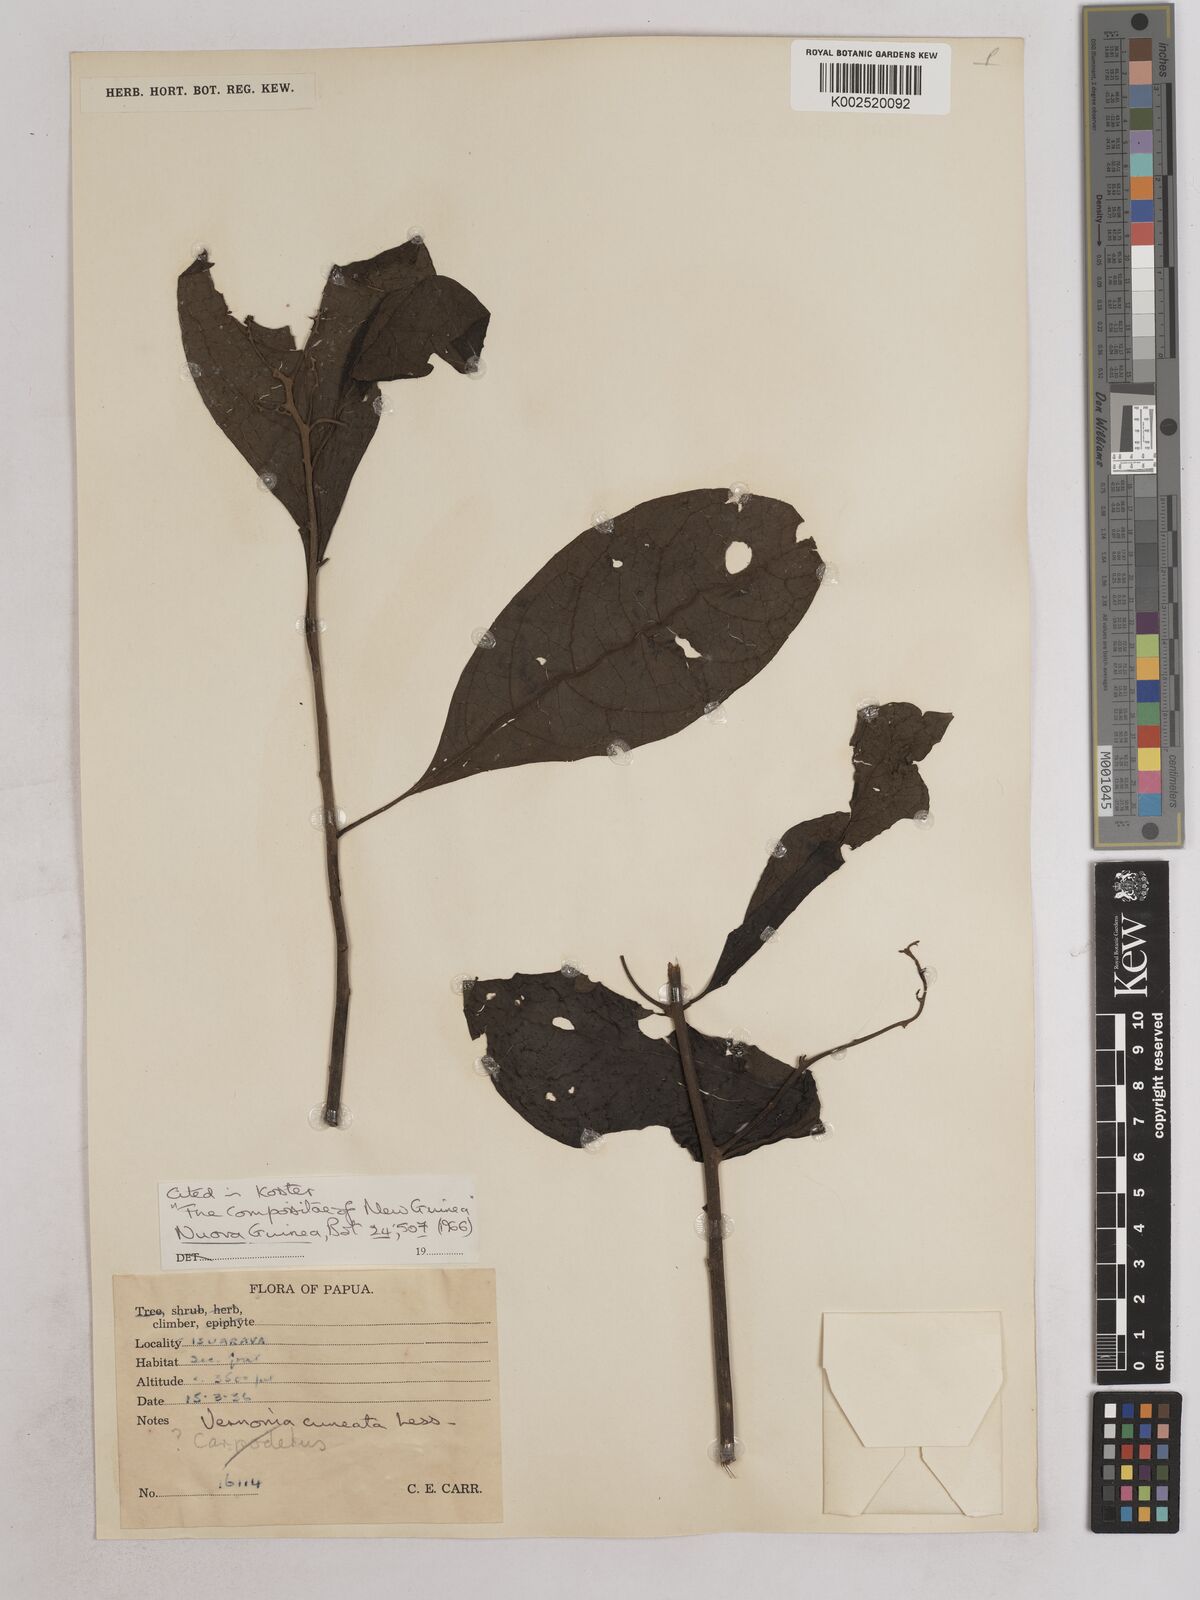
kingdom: Plantae
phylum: Tracheophyta
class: Magnoliopsida
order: Asterales
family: Asteraceae
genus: Decaneuropsis
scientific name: Decaneuropsis obovata
